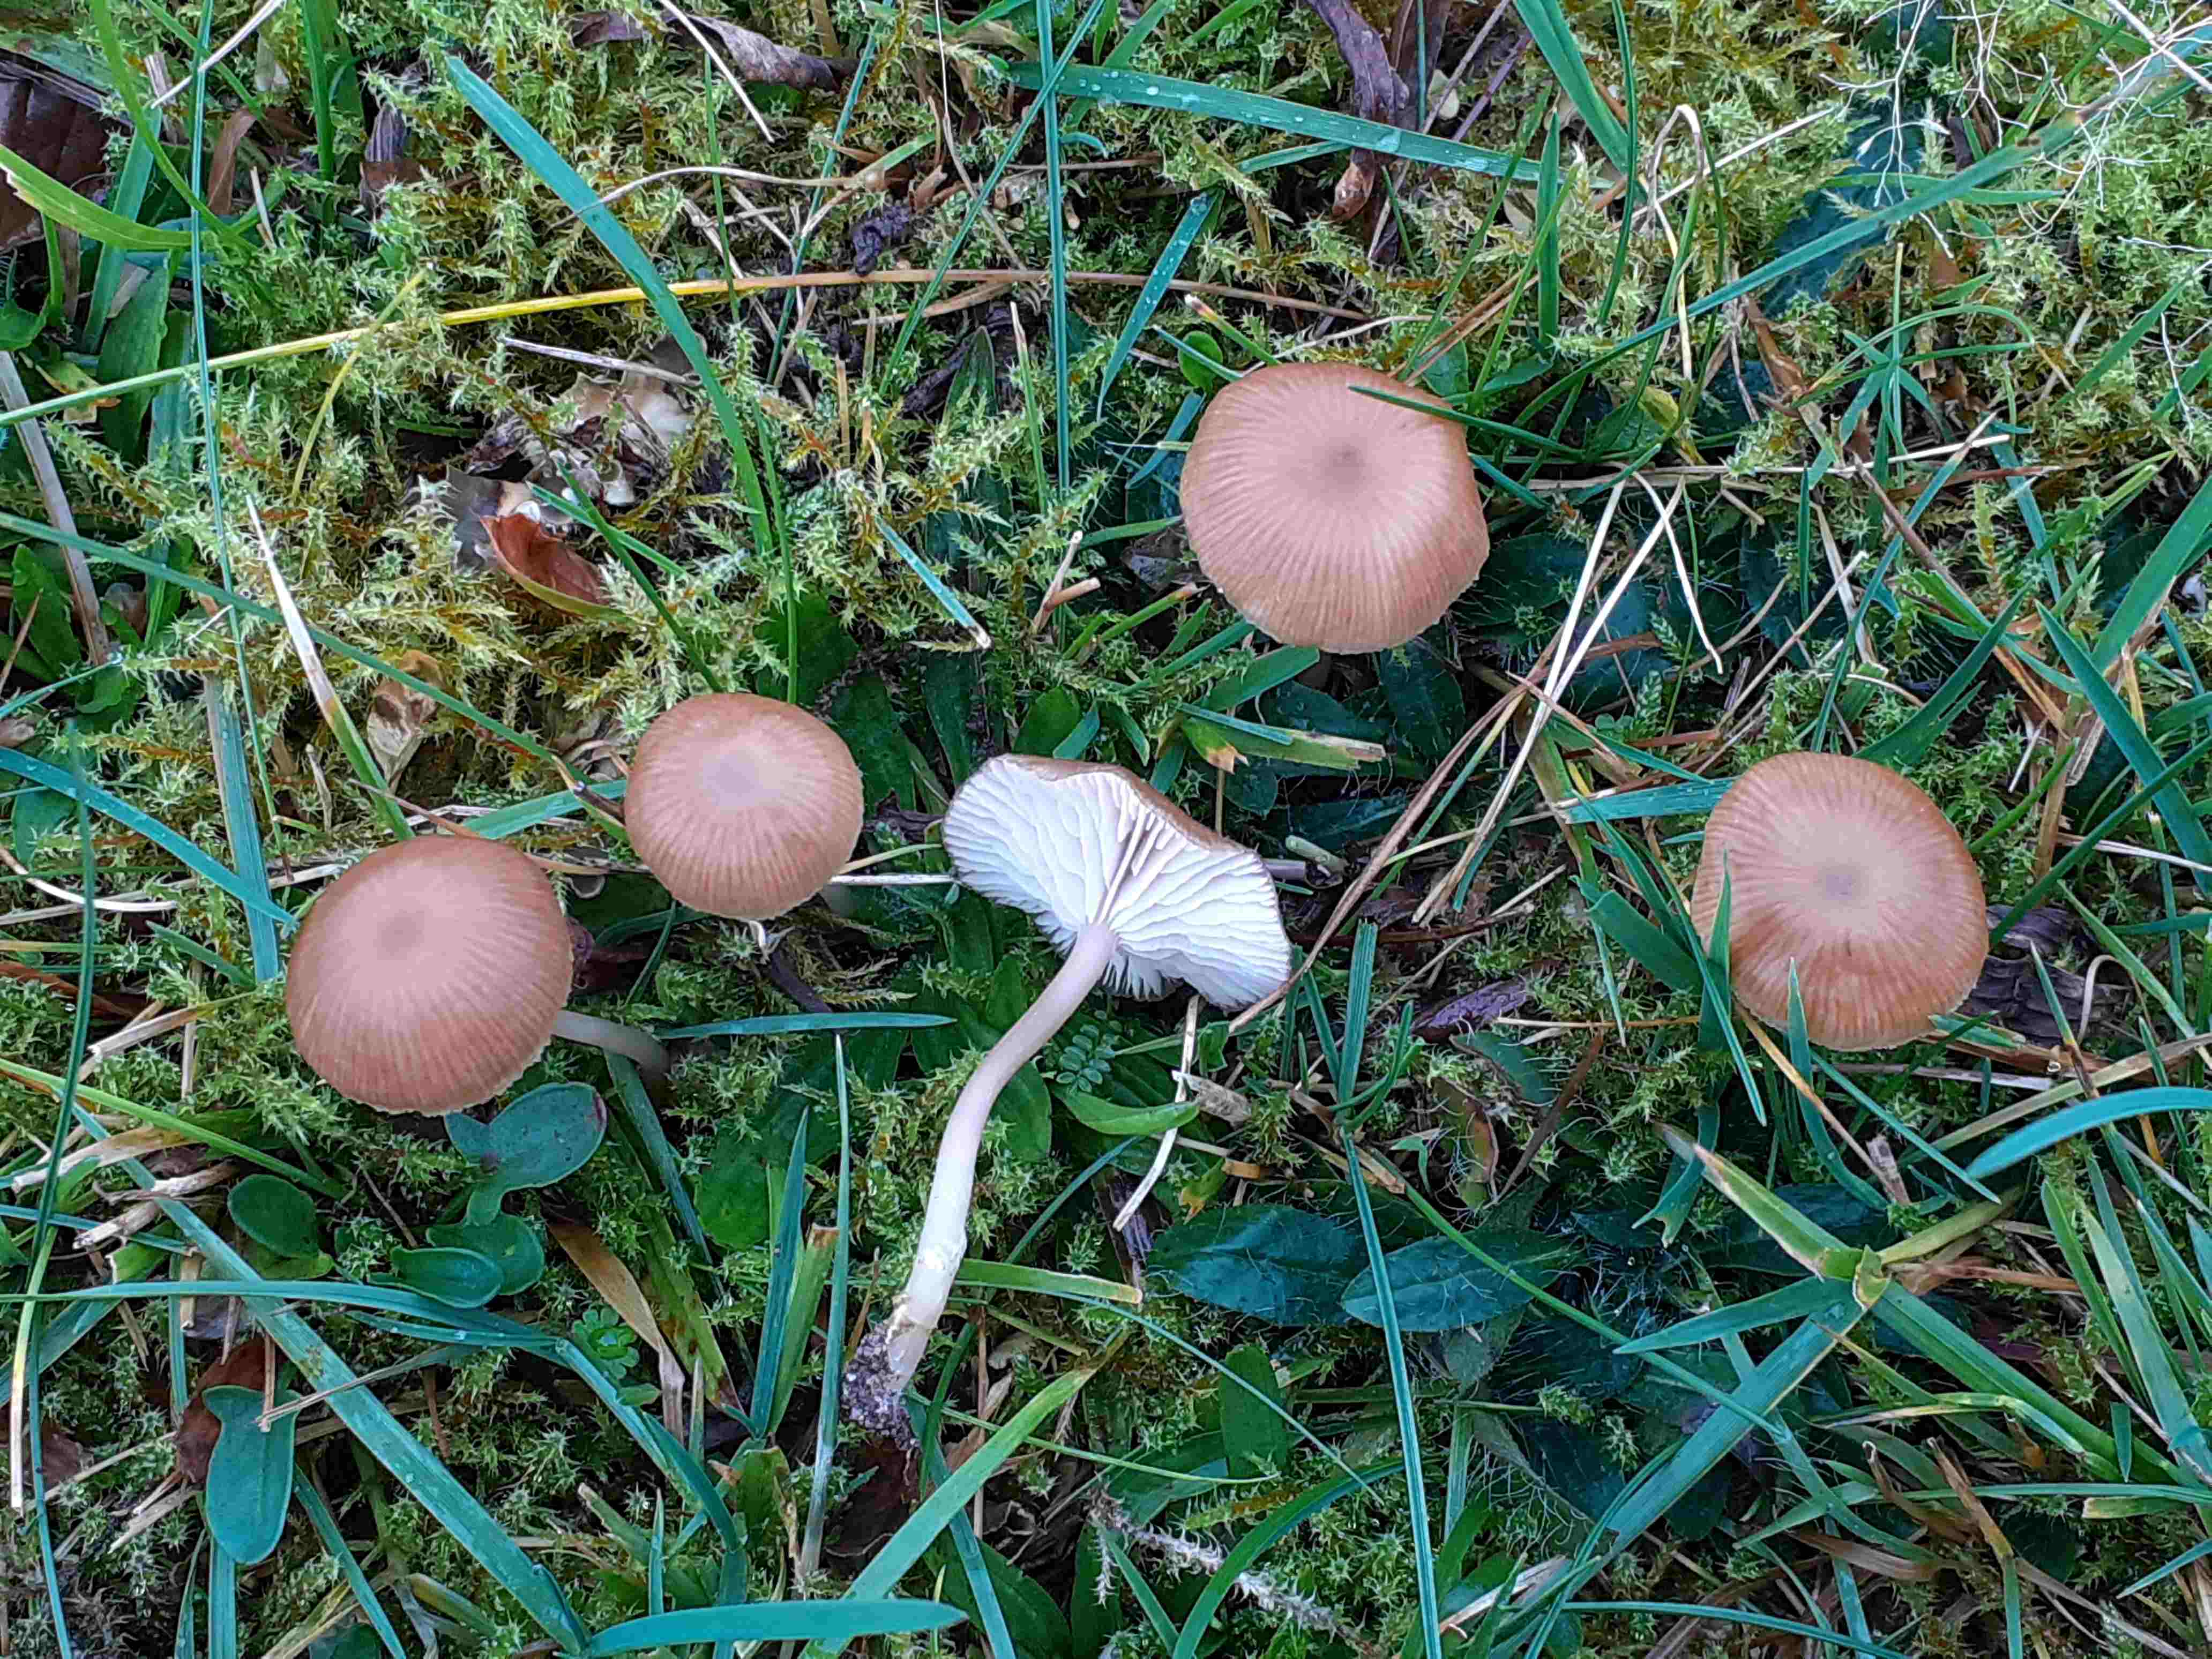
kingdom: Fungi
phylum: Basidiomycota
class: Agaricomycetes
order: Agaricales
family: Tricholomataceae
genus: Gamundia
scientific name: Gamundia xerophila
